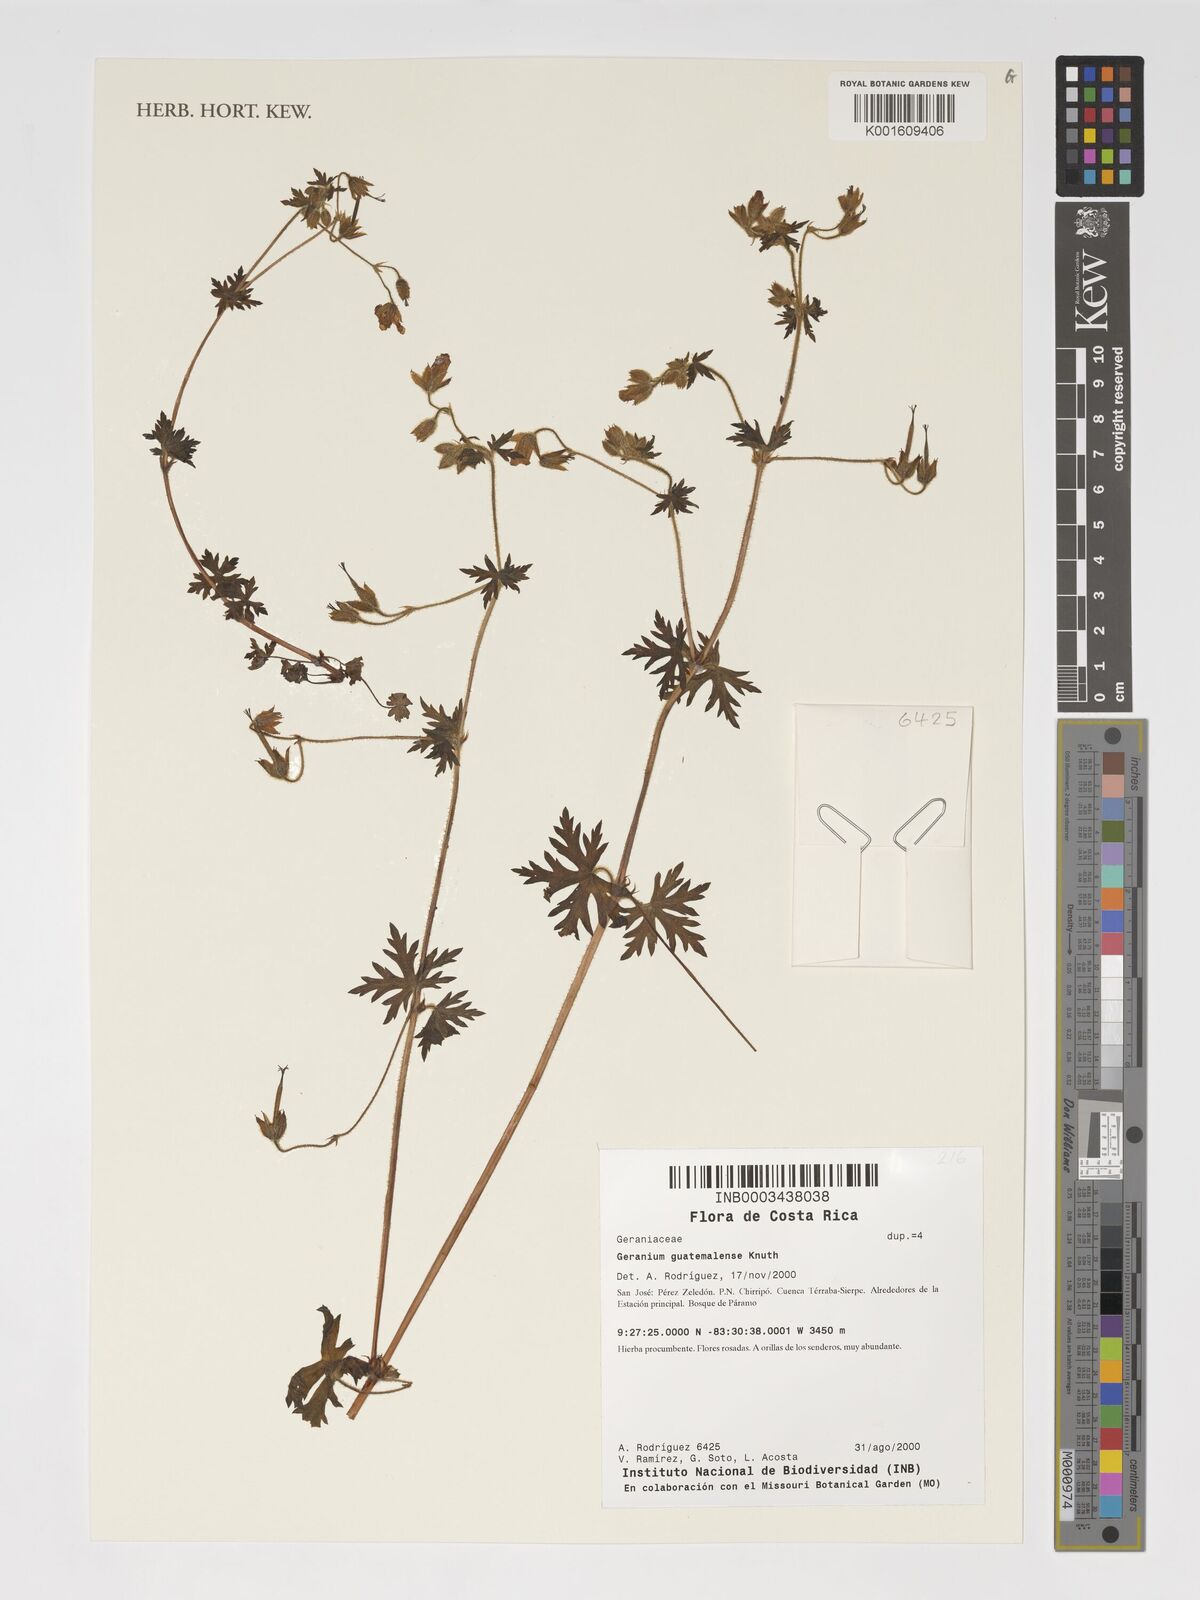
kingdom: Plantae
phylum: Tracheophyta
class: Magnoliopsida
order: Geraniales
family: Geraniaceae
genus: Geranium
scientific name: Geranium seemannii
